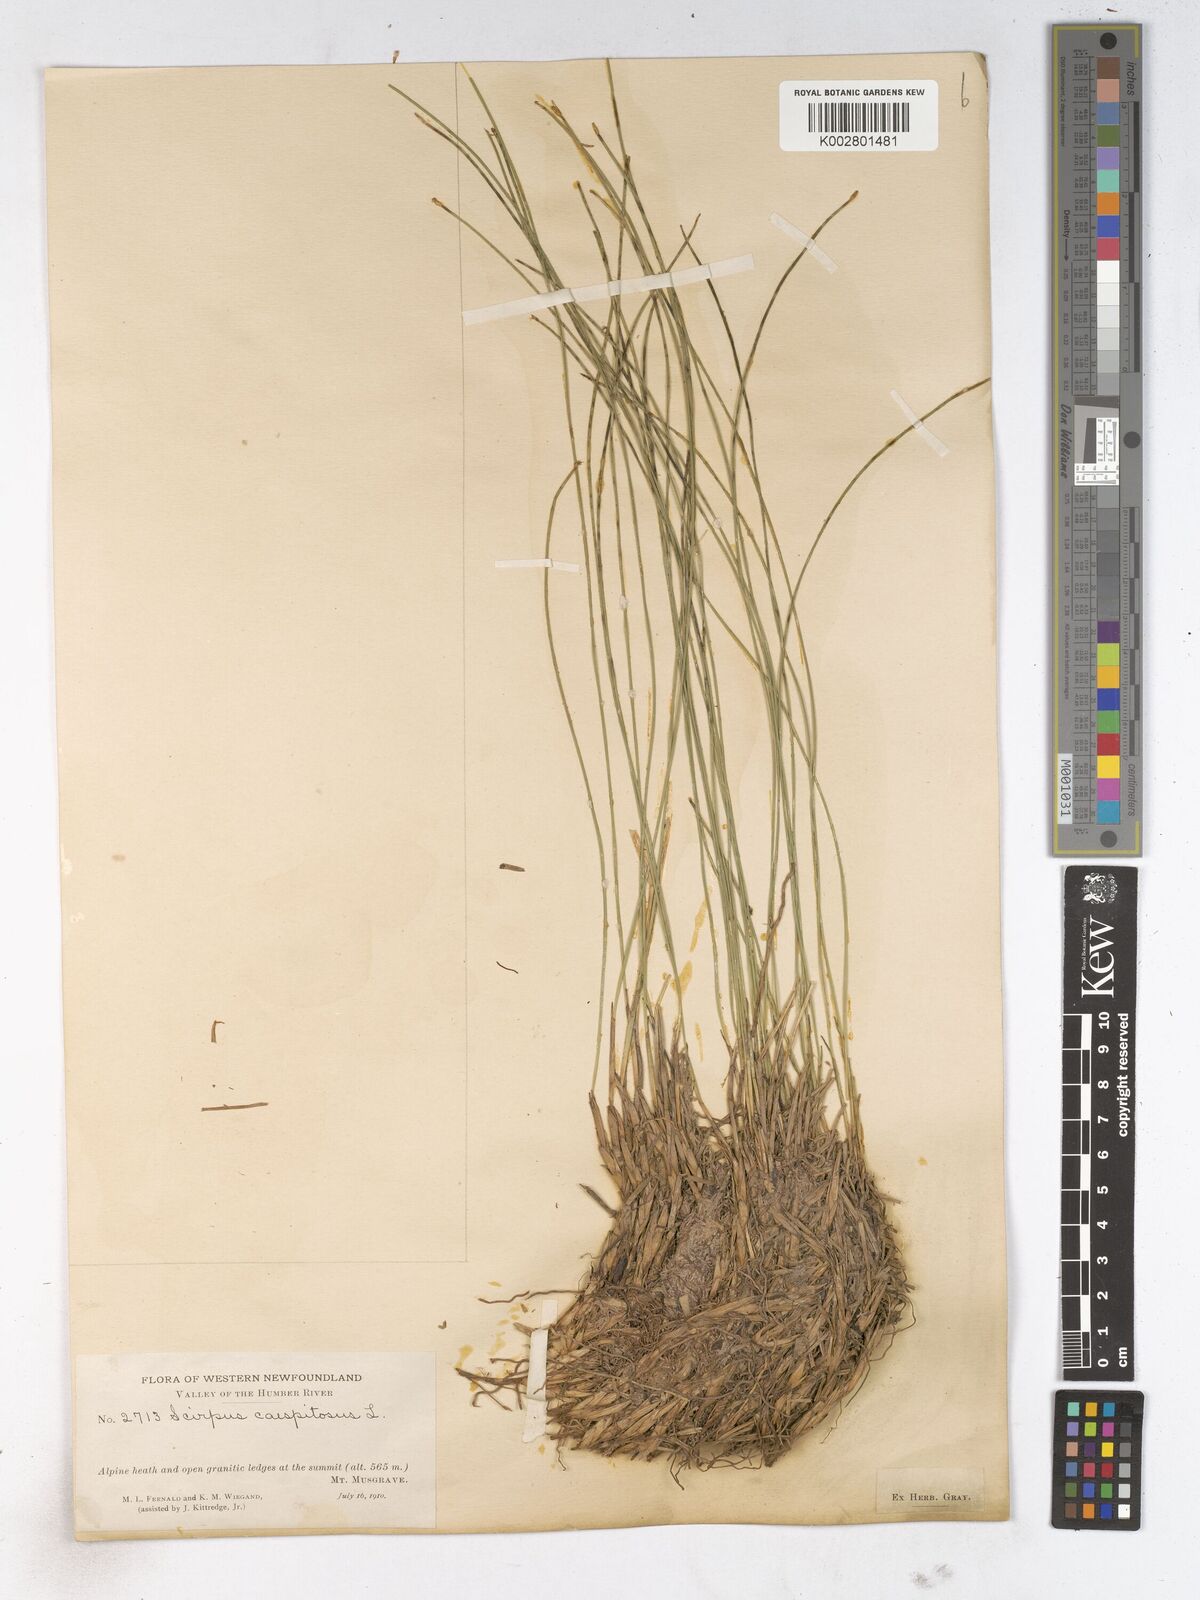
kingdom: Plantae
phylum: Tracheophyta
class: Liliopsida
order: Poales
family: Cyperaceae
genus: Trichophorum
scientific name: Trichophorum cespitosum
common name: Cespitose bulrush
